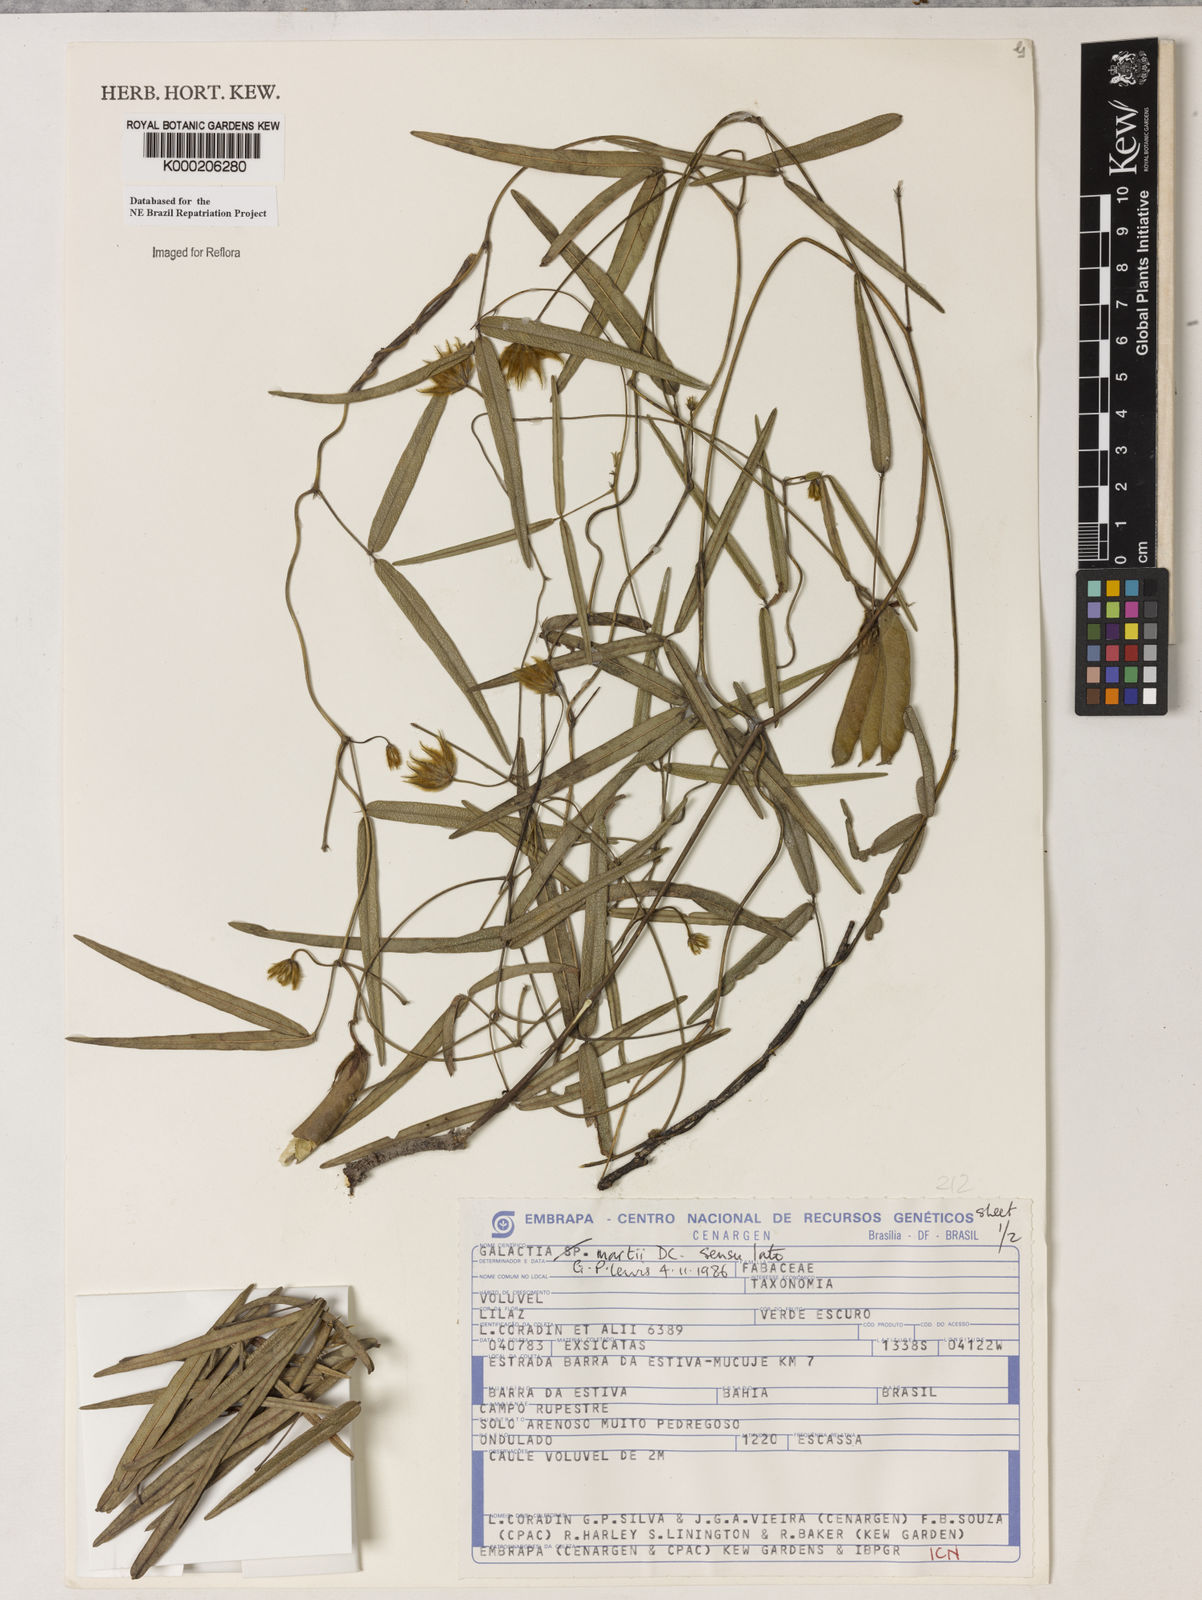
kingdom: Plantae
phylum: Tracheophyta
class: Magnoliopsida
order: Fabales
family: Fabaceae
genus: Betencourtia
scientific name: Betencourtia martii
